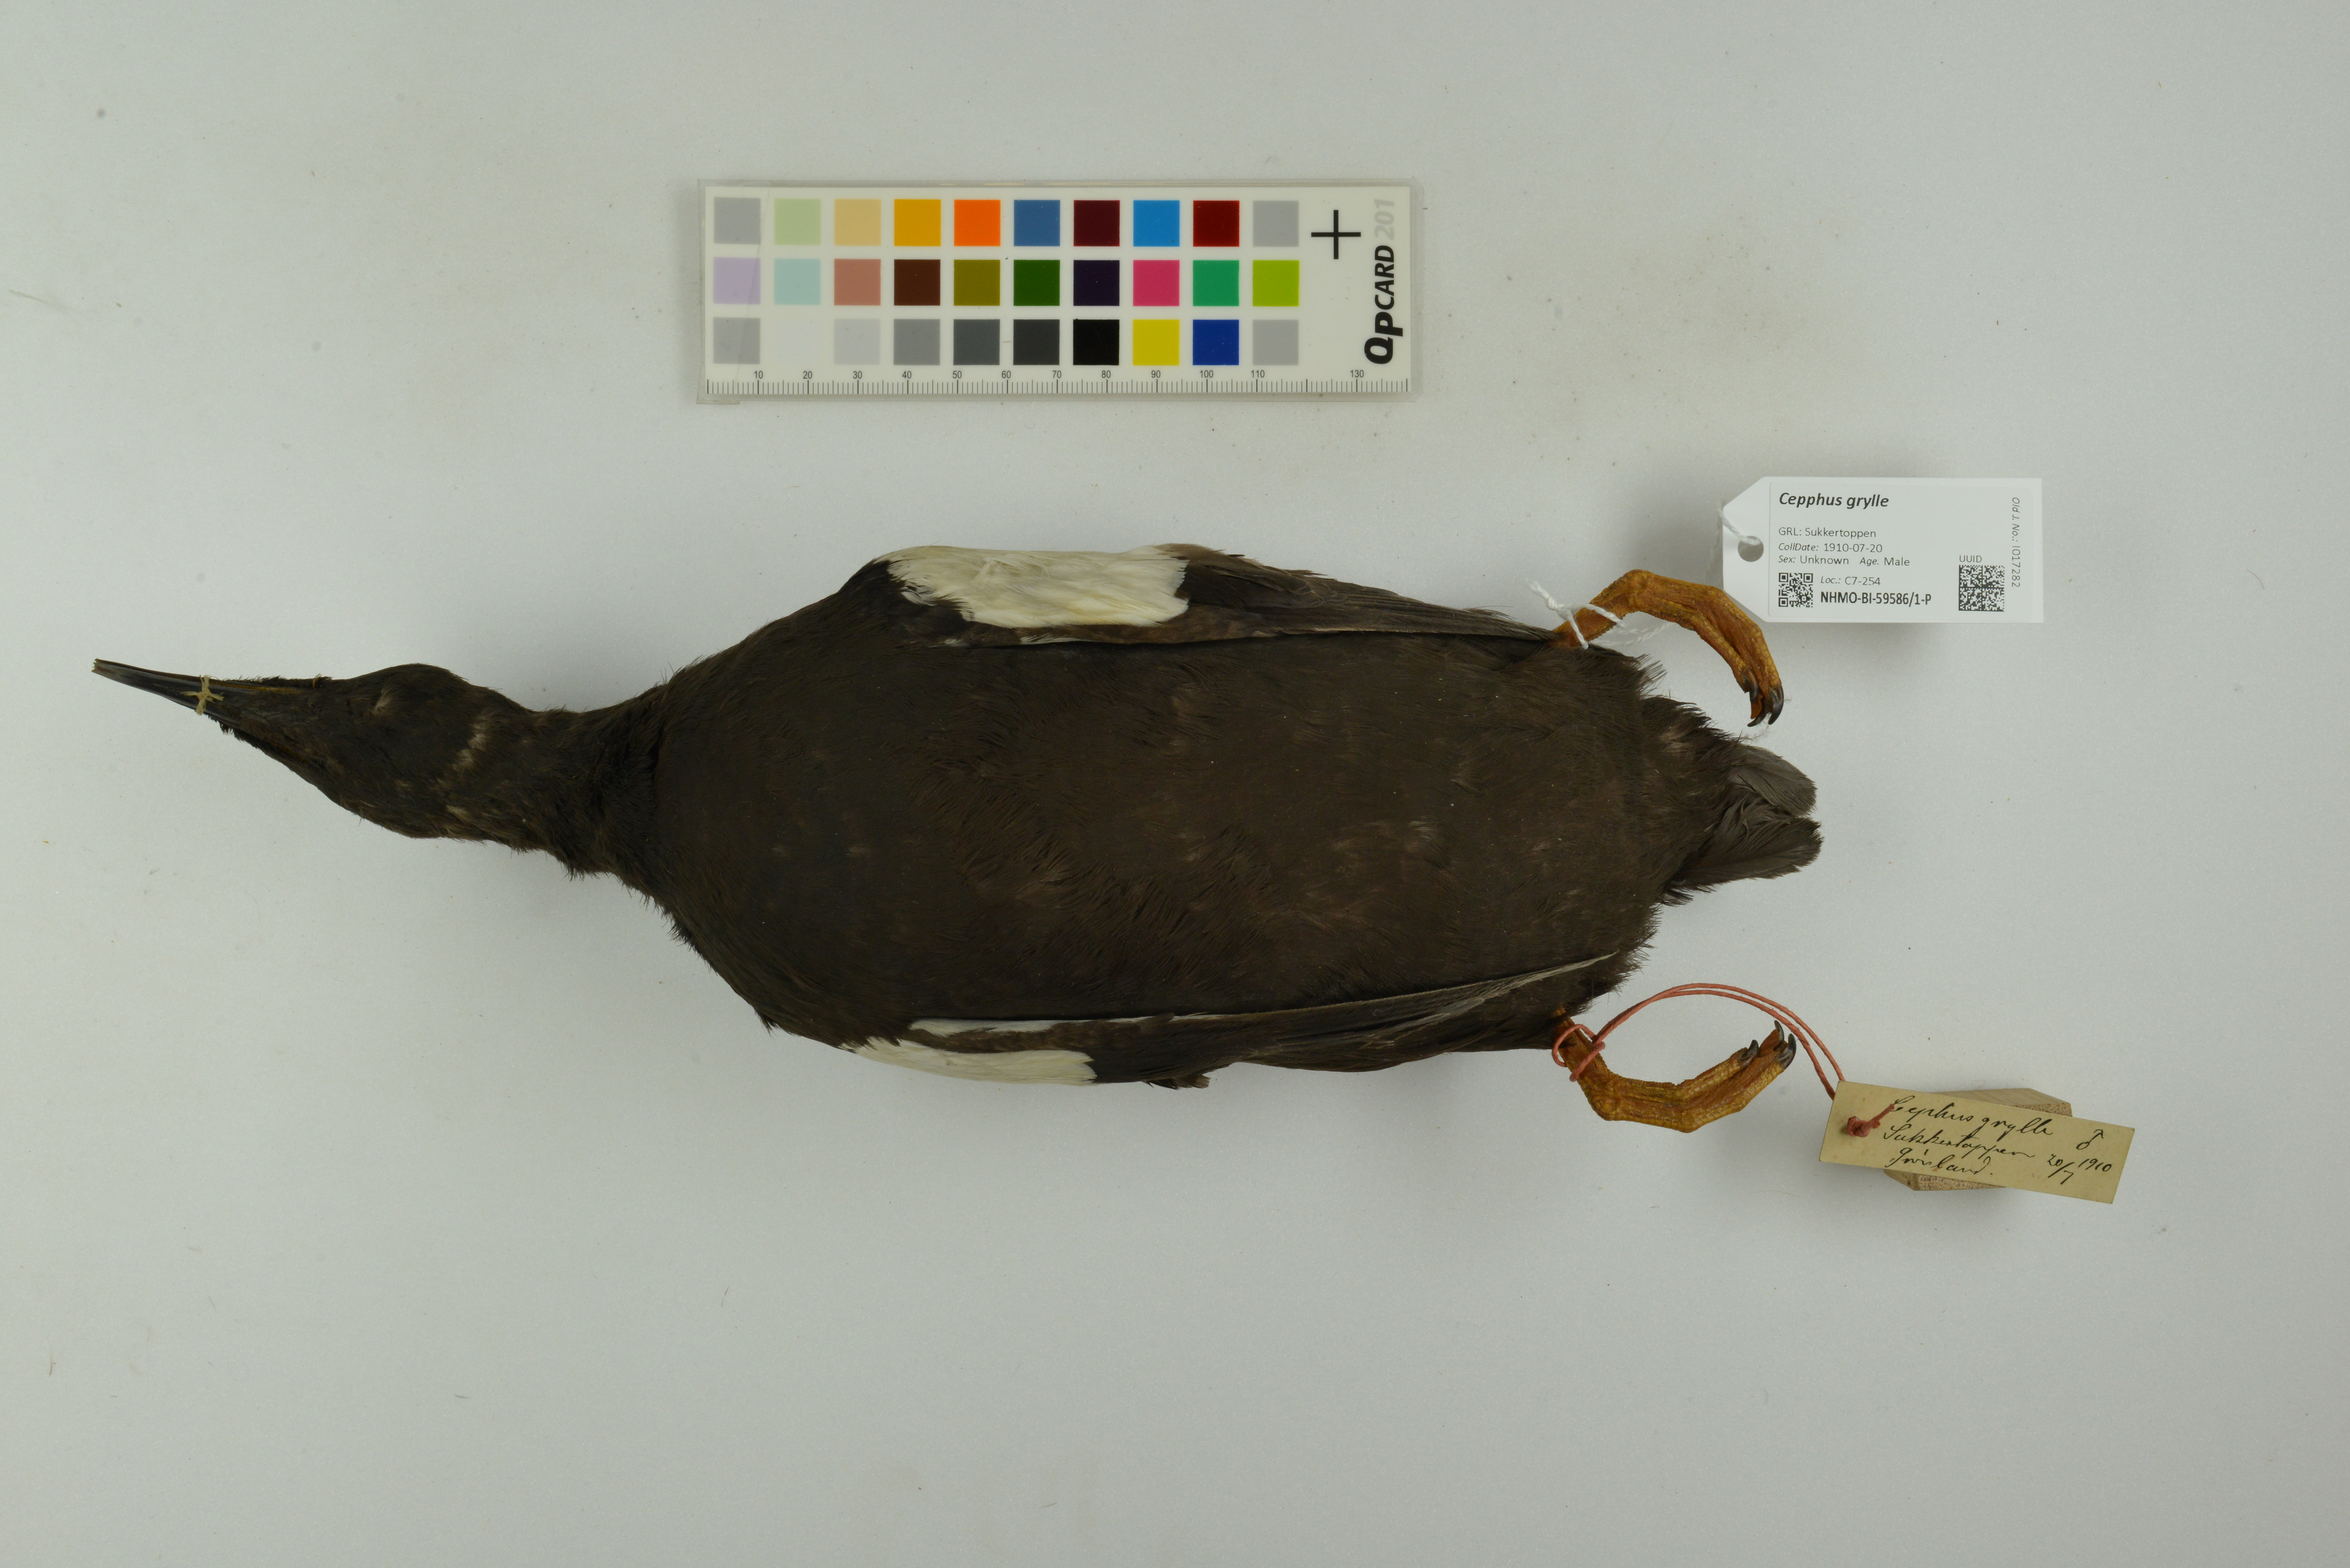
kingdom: Animalia
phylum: Chordata
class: Aves
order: Charadriiformes
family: Alcidae
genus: Cepphus
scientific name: Cepphus grylle
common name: Black guillemot
